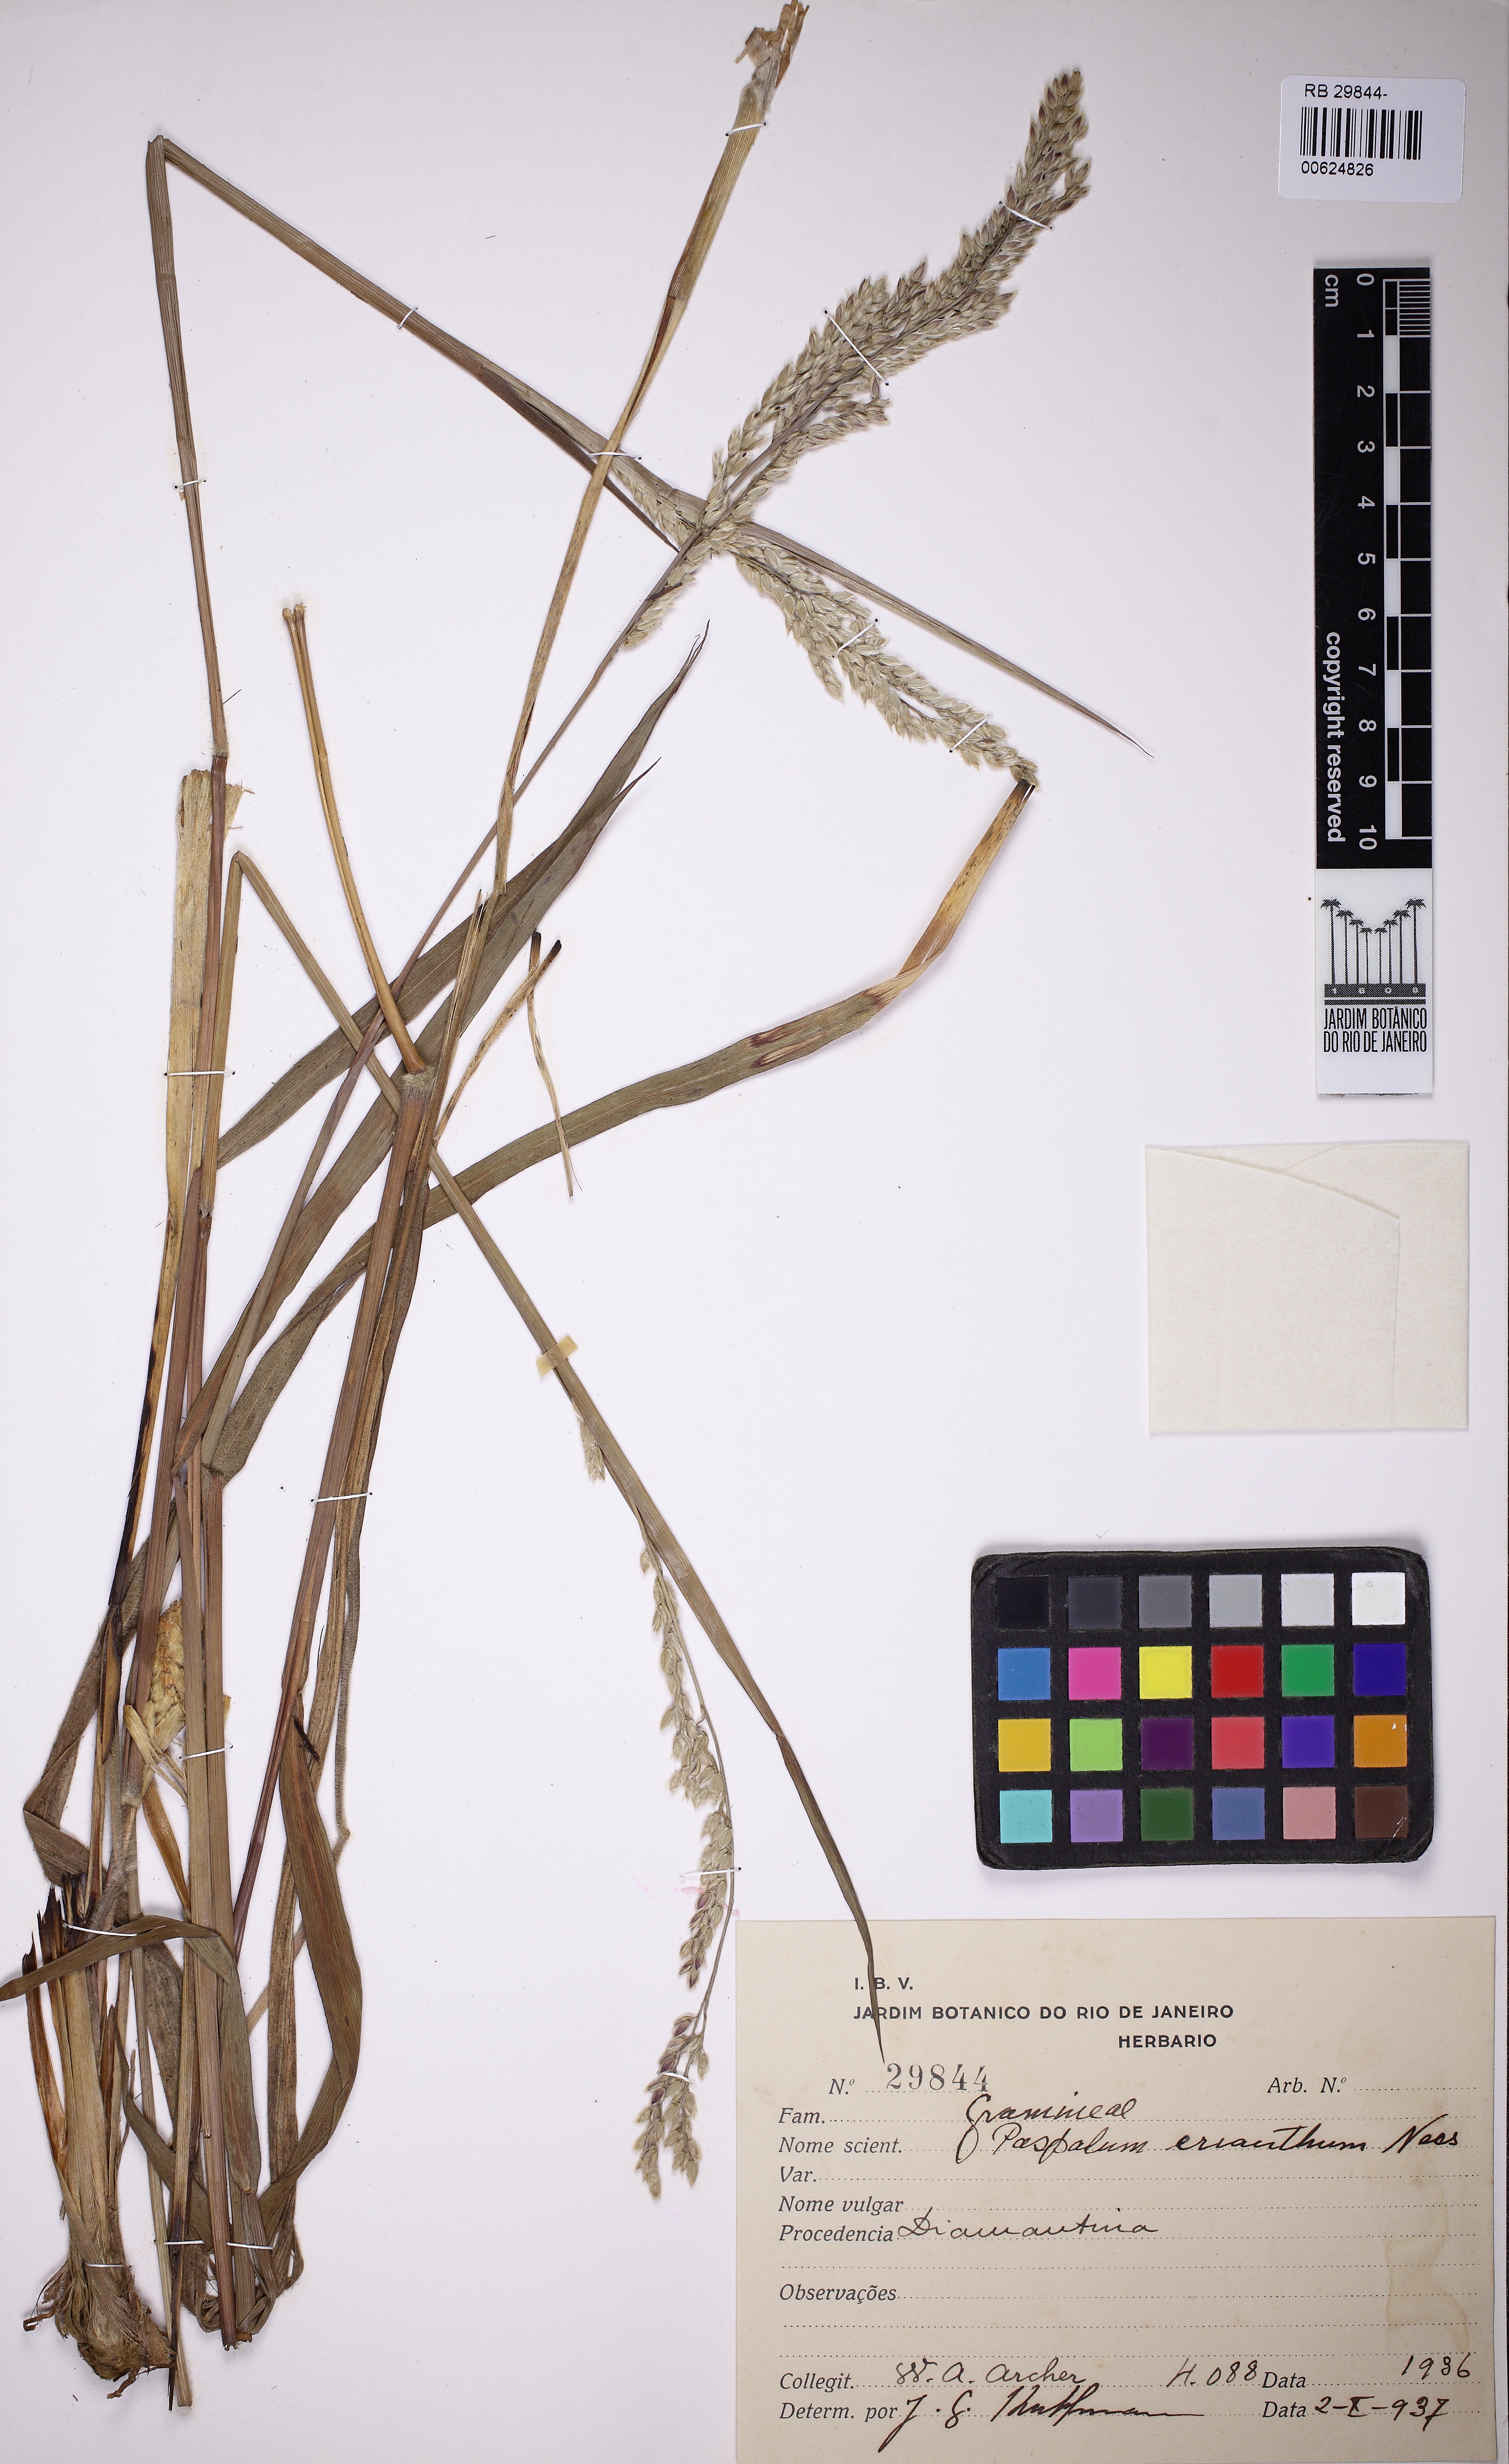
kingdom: Plantae
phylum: Tracheophyta
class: Liliopsida
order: Poales
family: Poaceae
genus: Paspalum
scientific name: Paspalum erianthum
